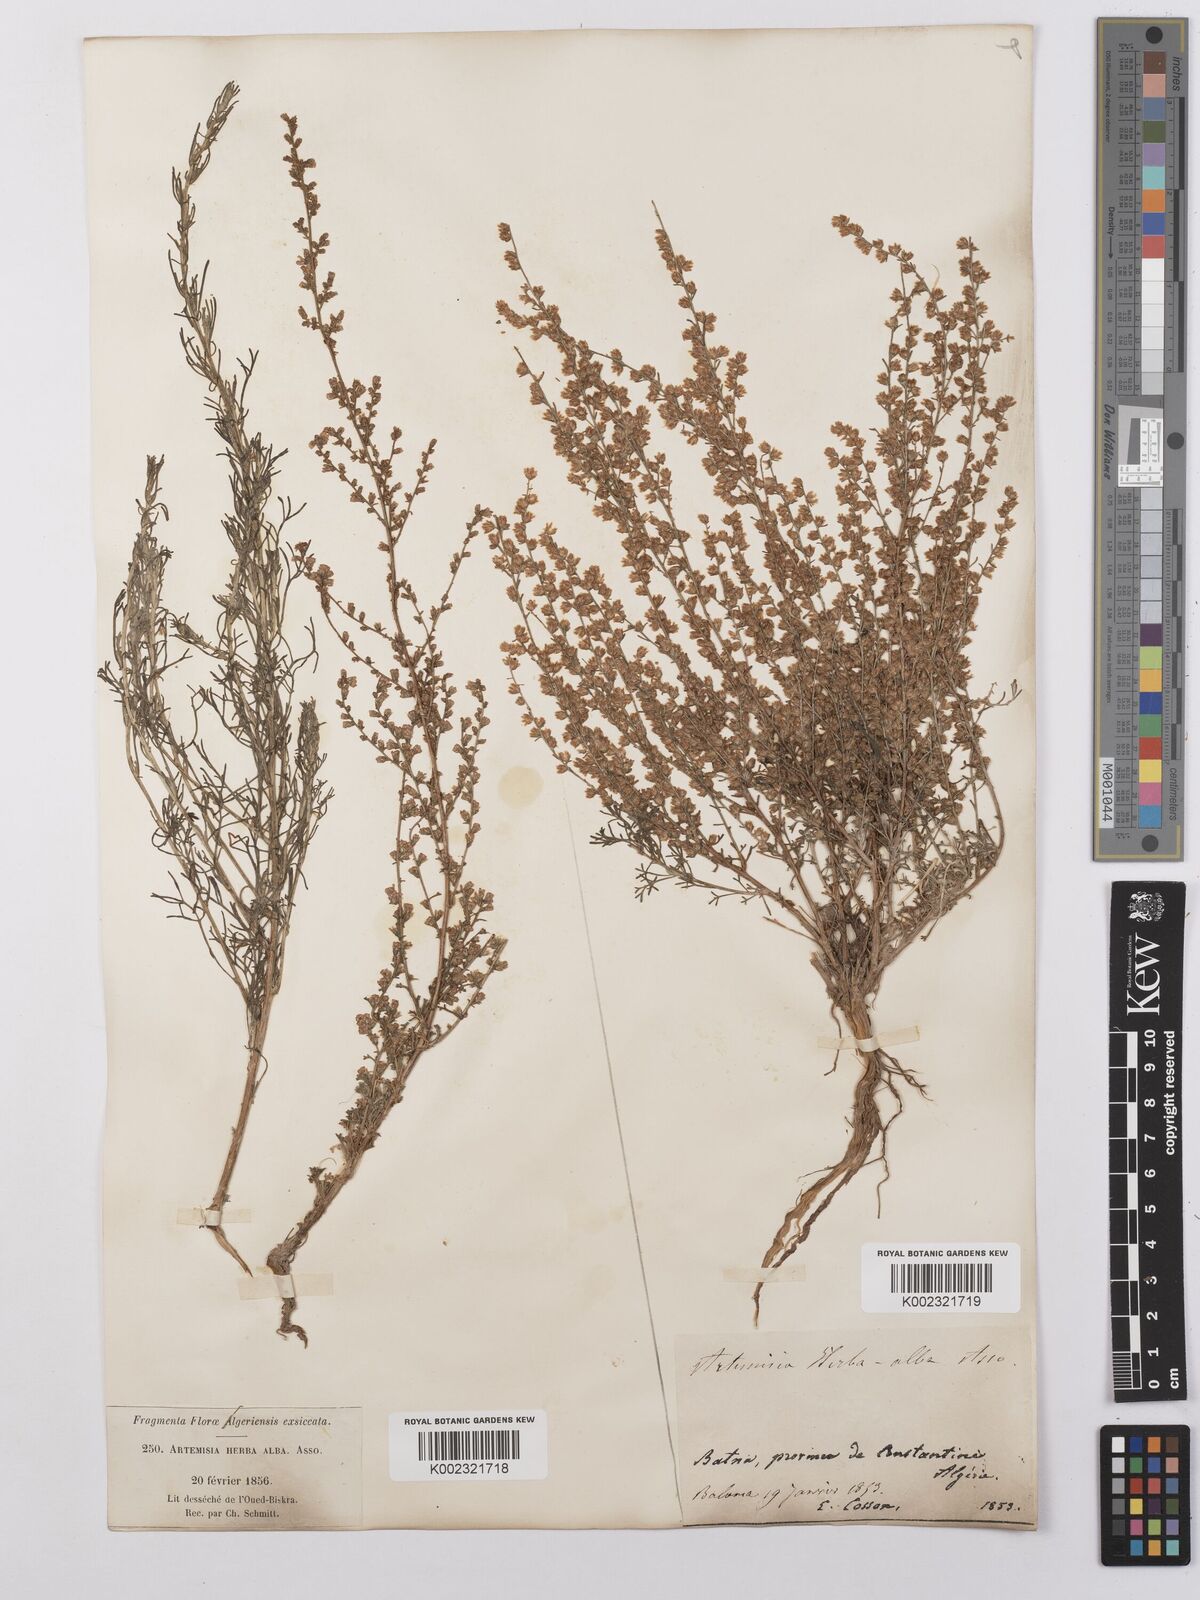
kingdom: Plantae
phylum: Tracheophyta
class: Magnoliopsida
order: Asterales
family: Asteraceae
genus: Artemisia
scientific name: Artemisia herba-alba
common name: White wormwood
